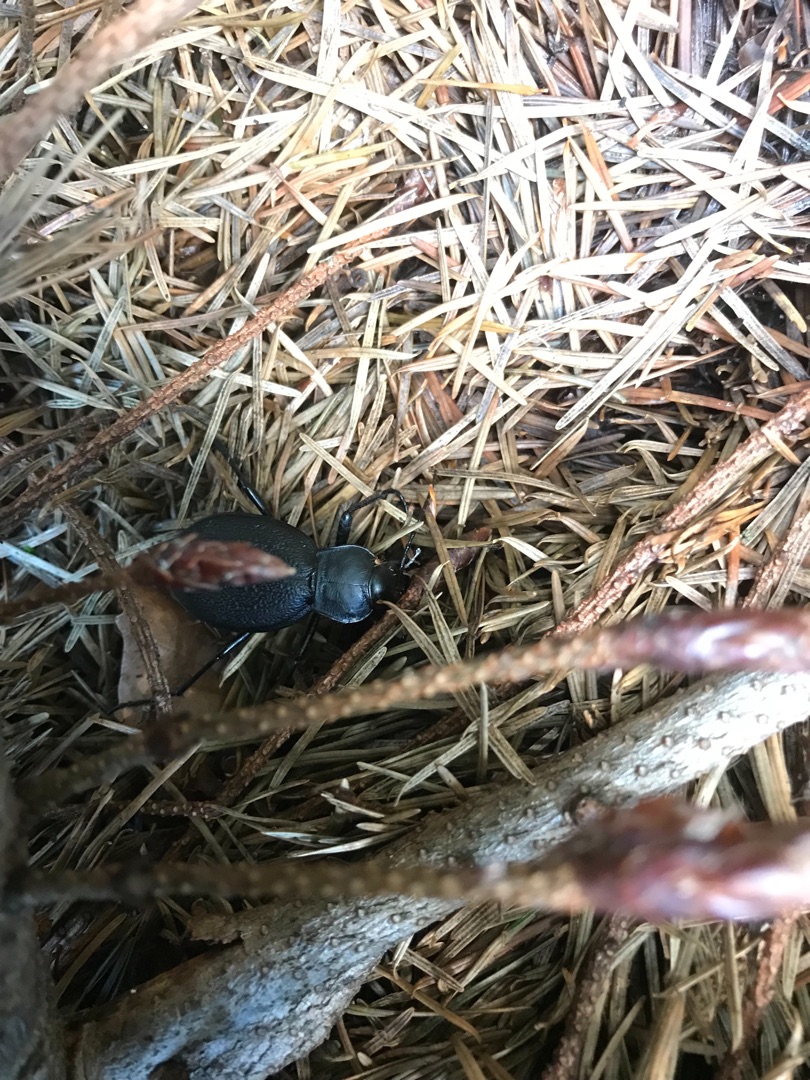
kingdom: Animalia
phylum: Arthropoda
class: Insecta
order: Coleoptera
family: Carabidae
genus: Carabus
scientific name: Carabus coriaceus
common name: Læderløber
